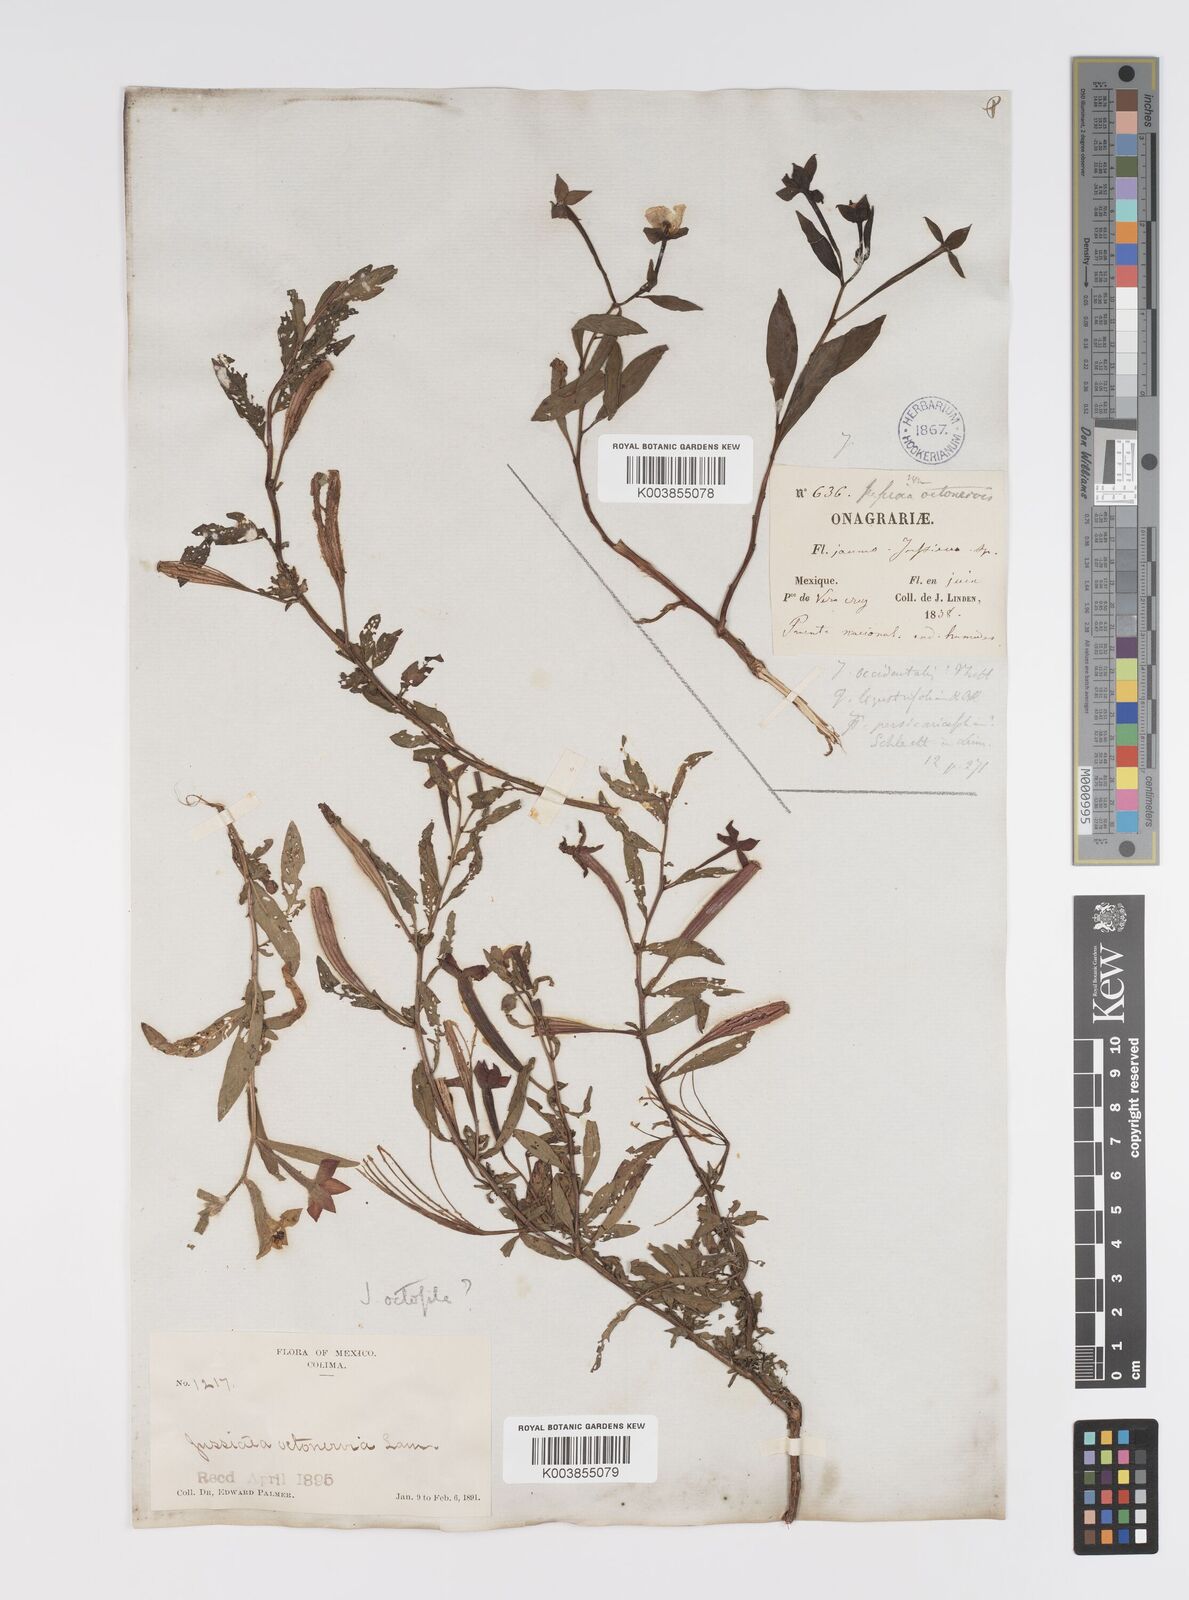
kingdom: Plantae
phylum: Tracheophyta
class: Magnoliopsida
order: Myrtales
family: Onagraceae
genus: Ludwigia
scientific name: Ludwigia octovalvis
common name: Water-primrose
